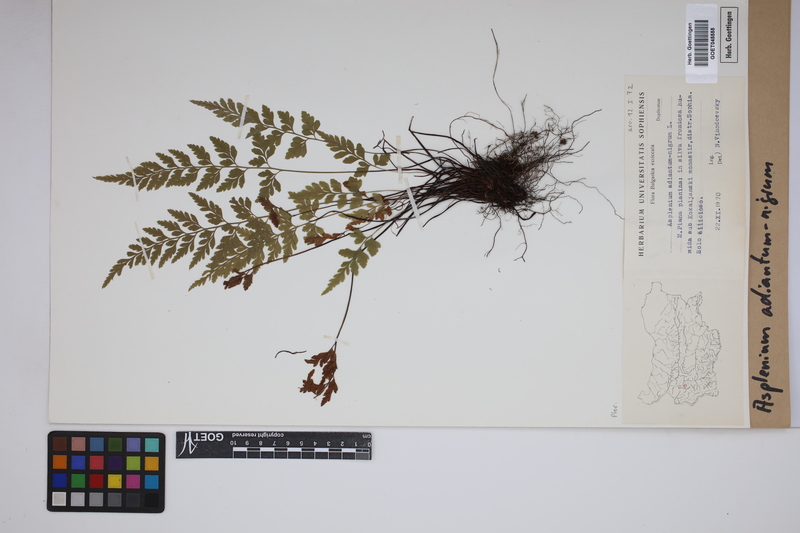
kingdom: Plantae
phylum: Tracheophyta
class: Polypodiopsida
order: Polypodiales
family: Aspleniaceae
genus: Asplenium
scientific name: Asplenium adiantum-nigrum
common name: Black spleenwort
